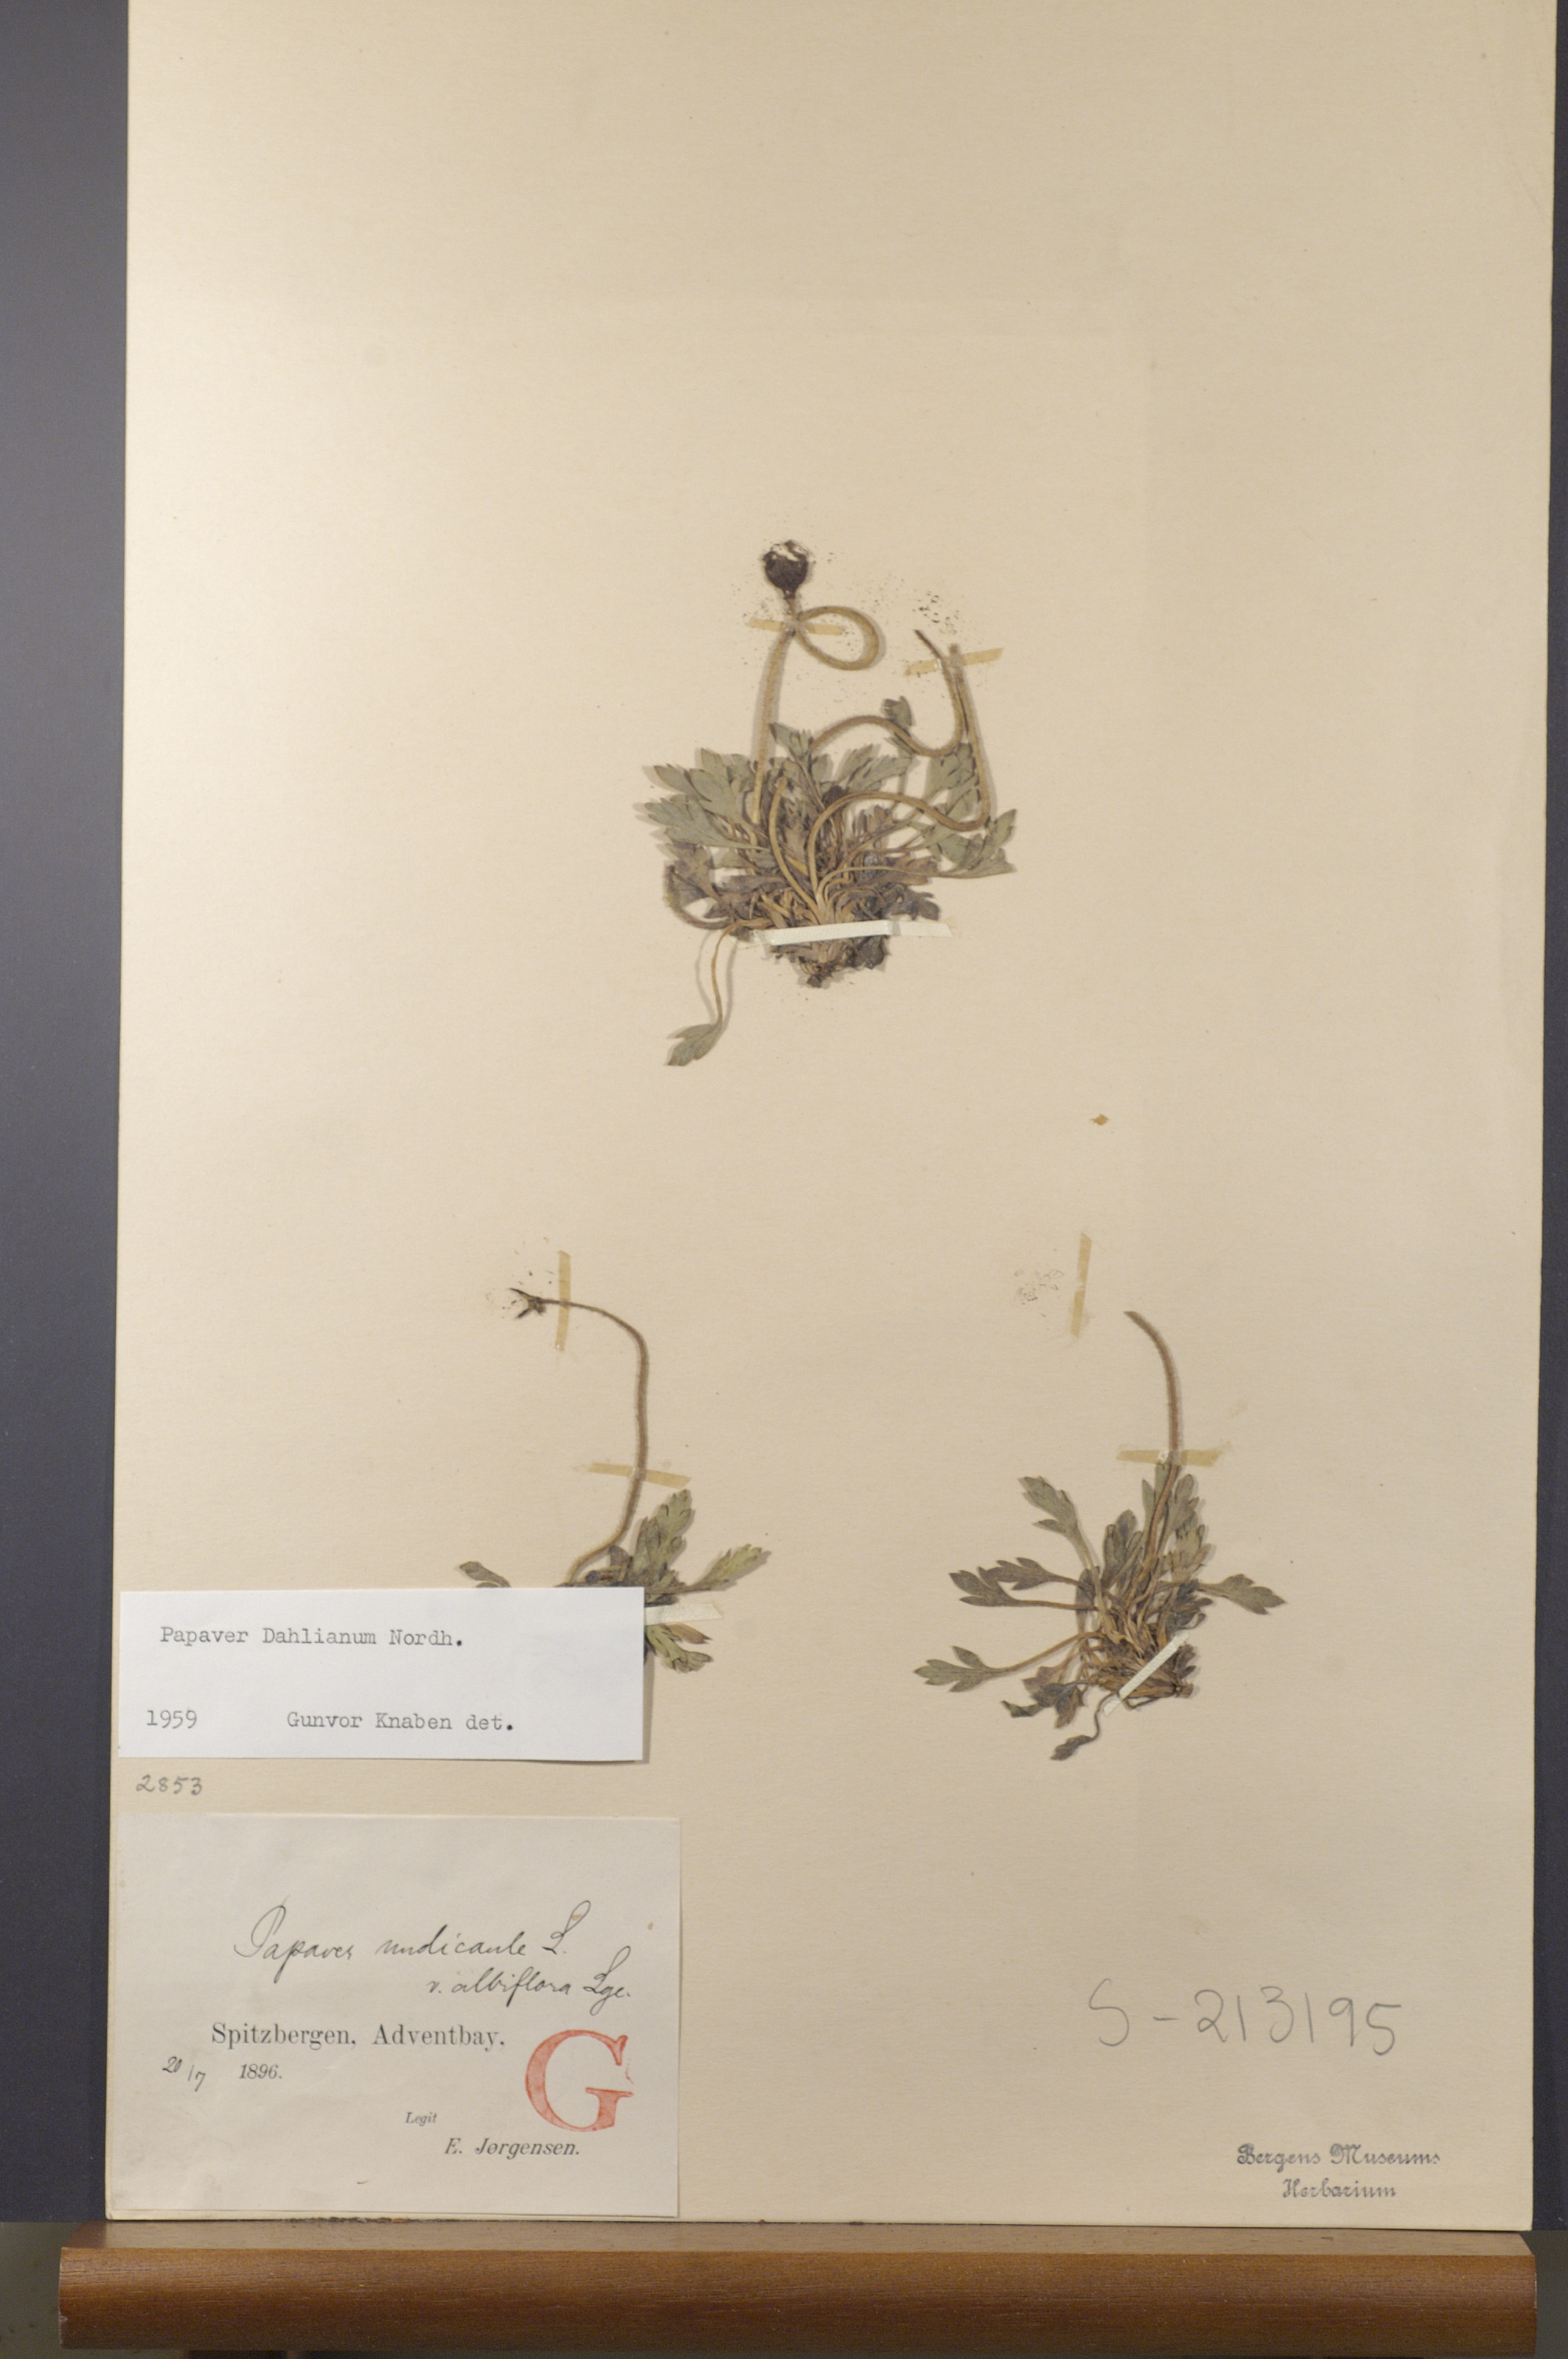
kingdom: Plantae
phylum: Tracheophyta
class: Magnoliopsida
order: Ranunculales
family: Papaveraceae
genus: Papaver
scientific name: Papaver radicatum
